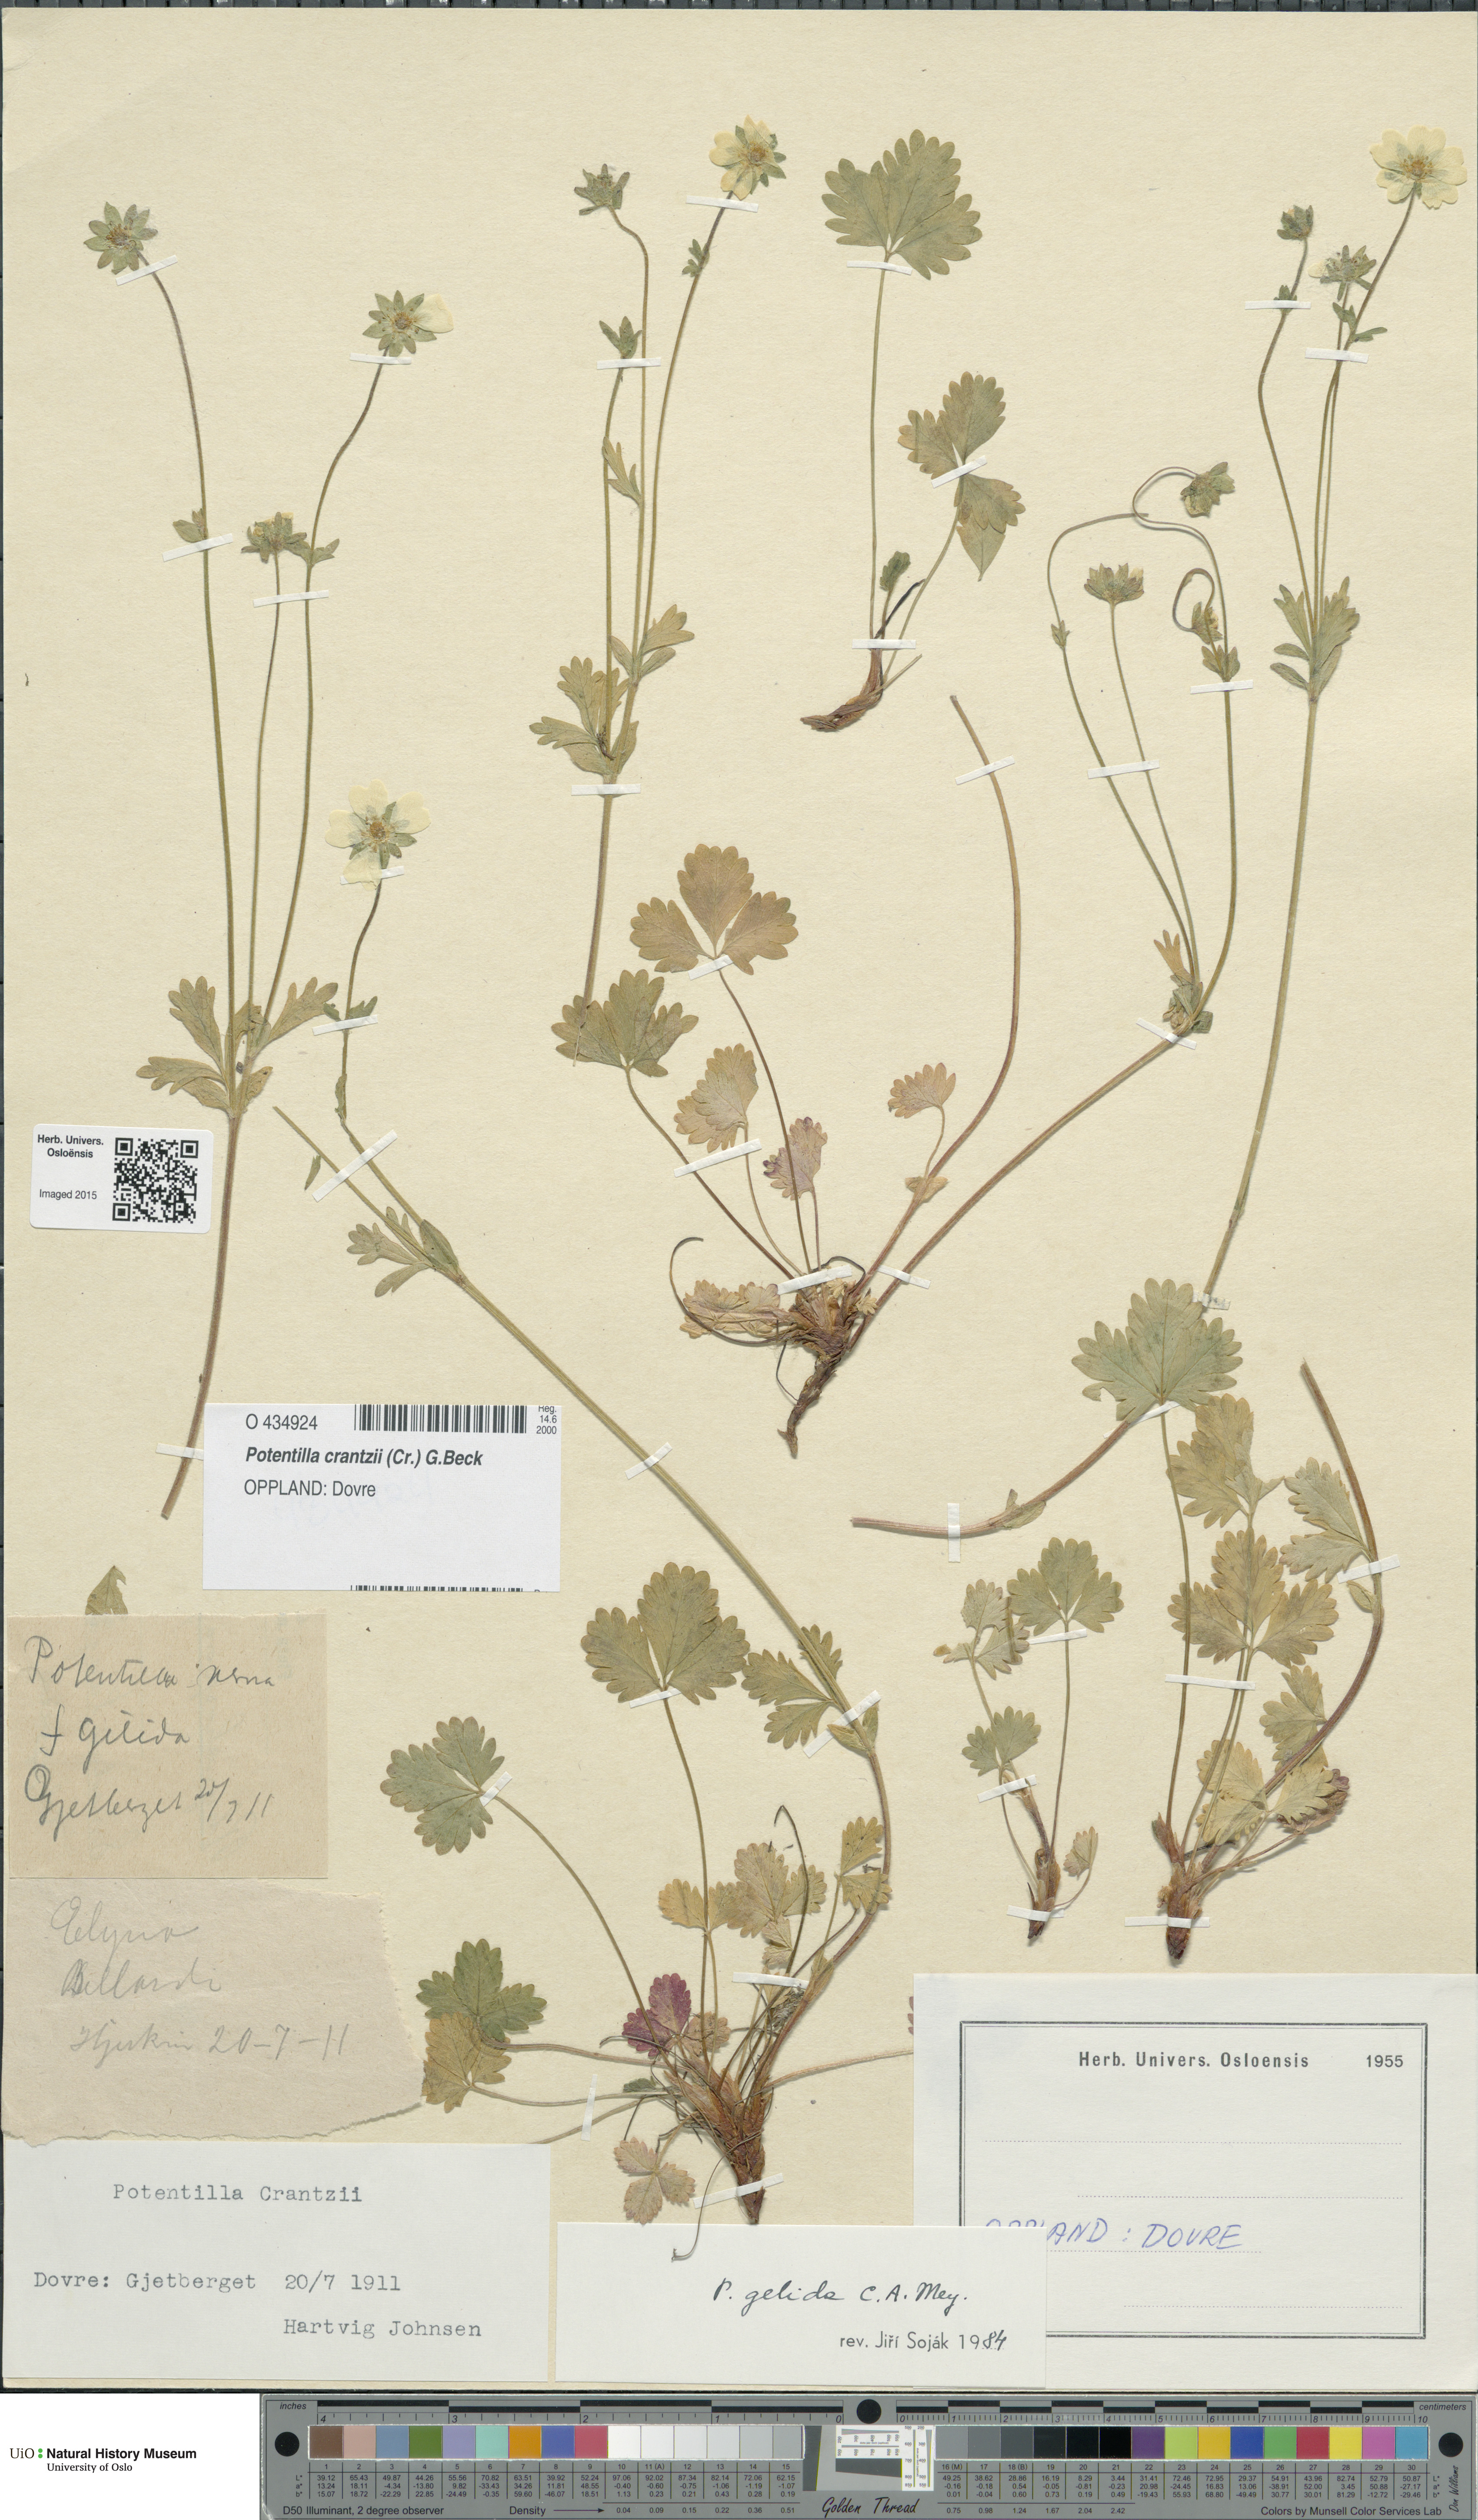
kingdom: Plantae
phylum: Tracheophyta
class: Magnoliopsida
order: Rosales
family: Rosaceae
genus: Potentilla
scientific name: Potentilla crantzii
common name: Alpine cinquefoil
